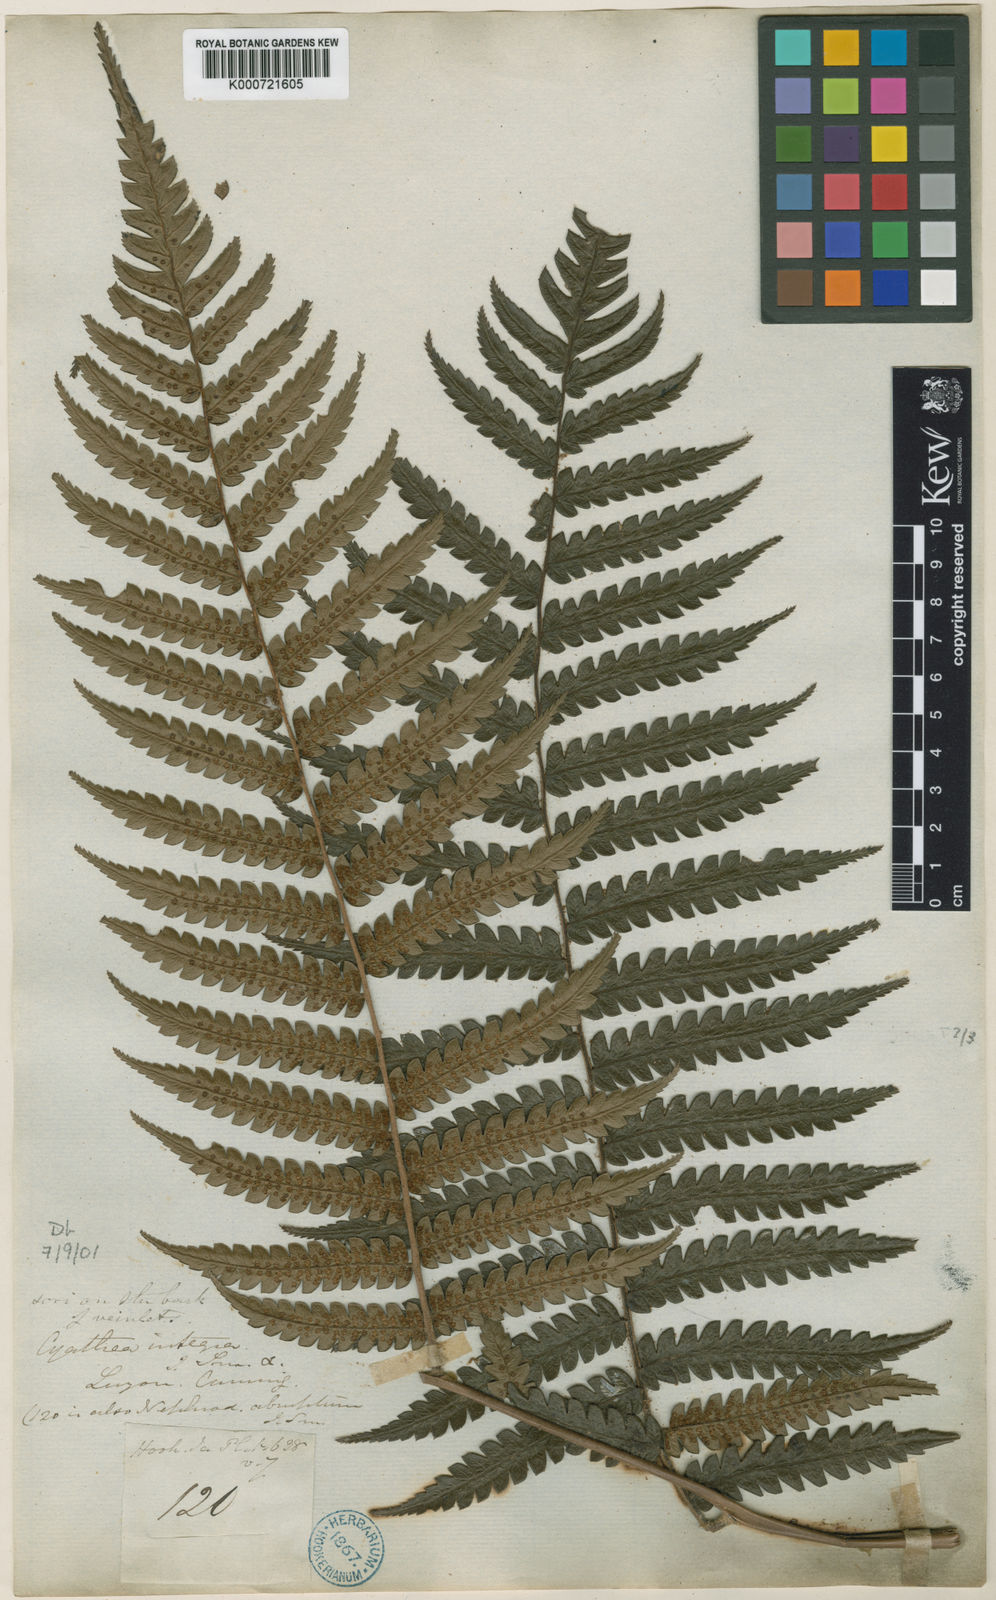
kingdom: Plantae
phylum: Tracheophyta
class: Polypodiopsida
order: Cyatheales
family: Cyatheaceae
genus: Sphaeropteris
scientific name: Sphaeropteris integra
